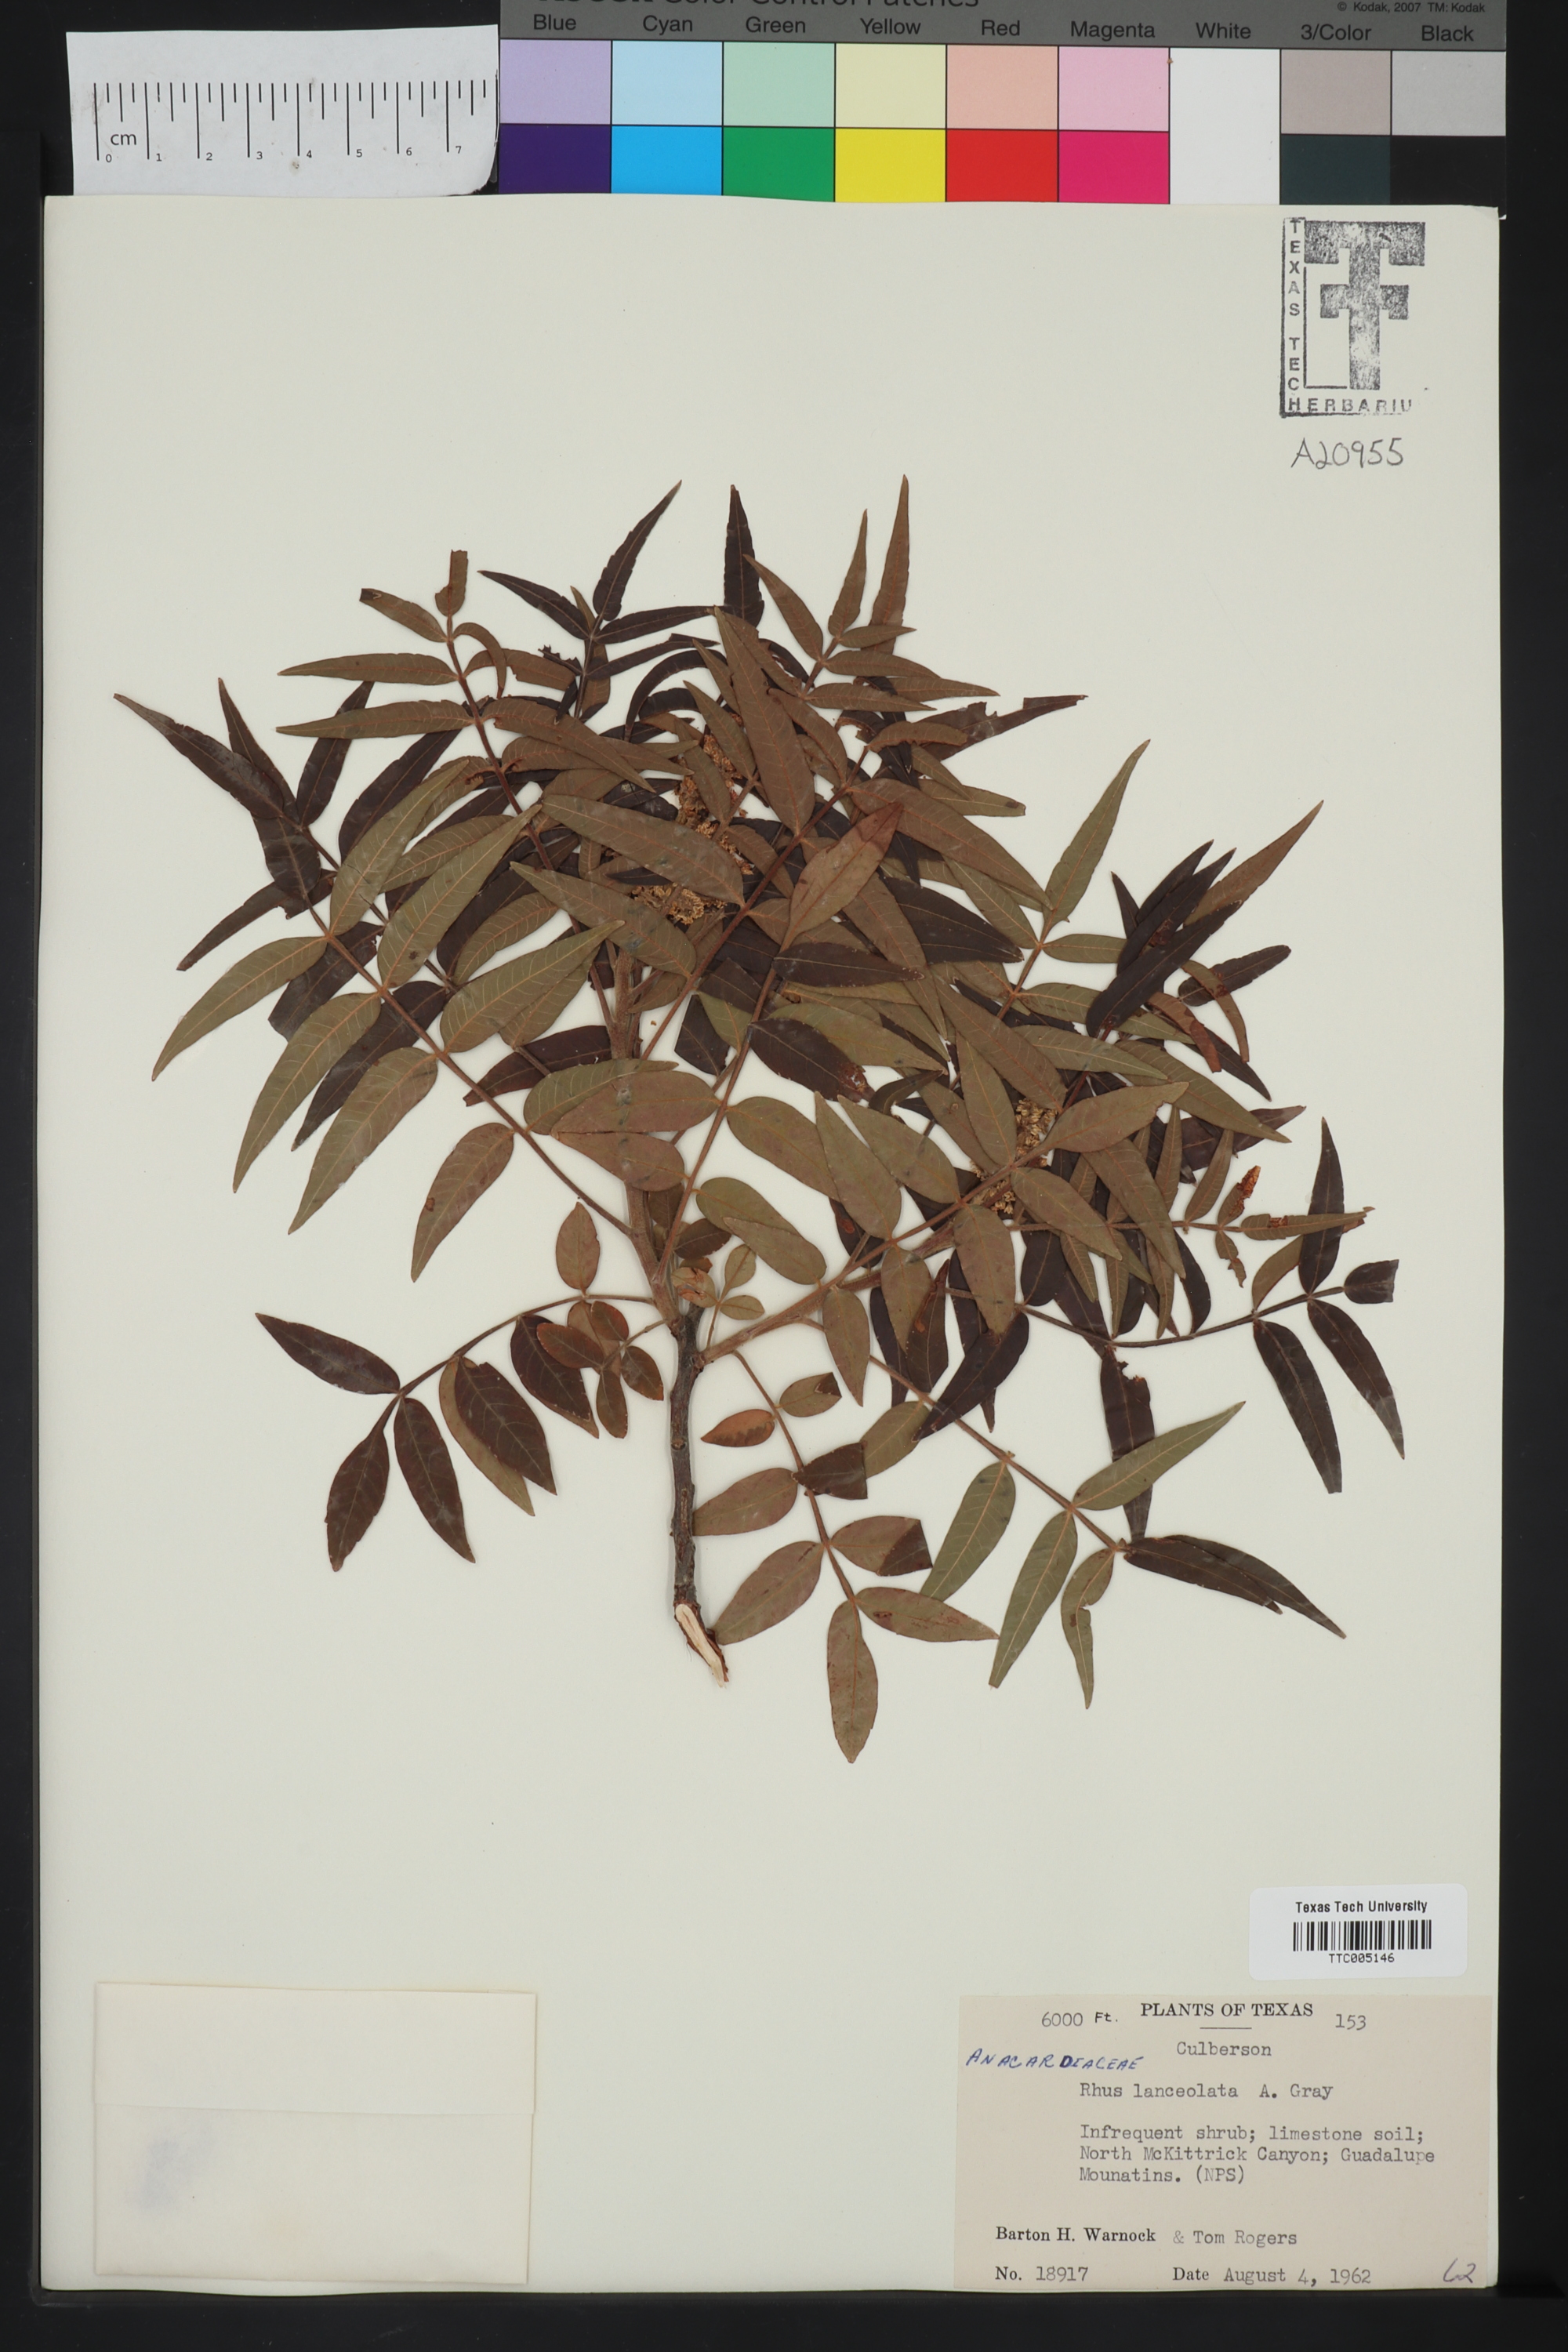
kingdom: Plantae
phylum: Tracheophyta
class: Magnoliopsida
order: Sapindales
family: Anacardiaceae
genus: Rhus
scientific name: Rhus lanceolata
